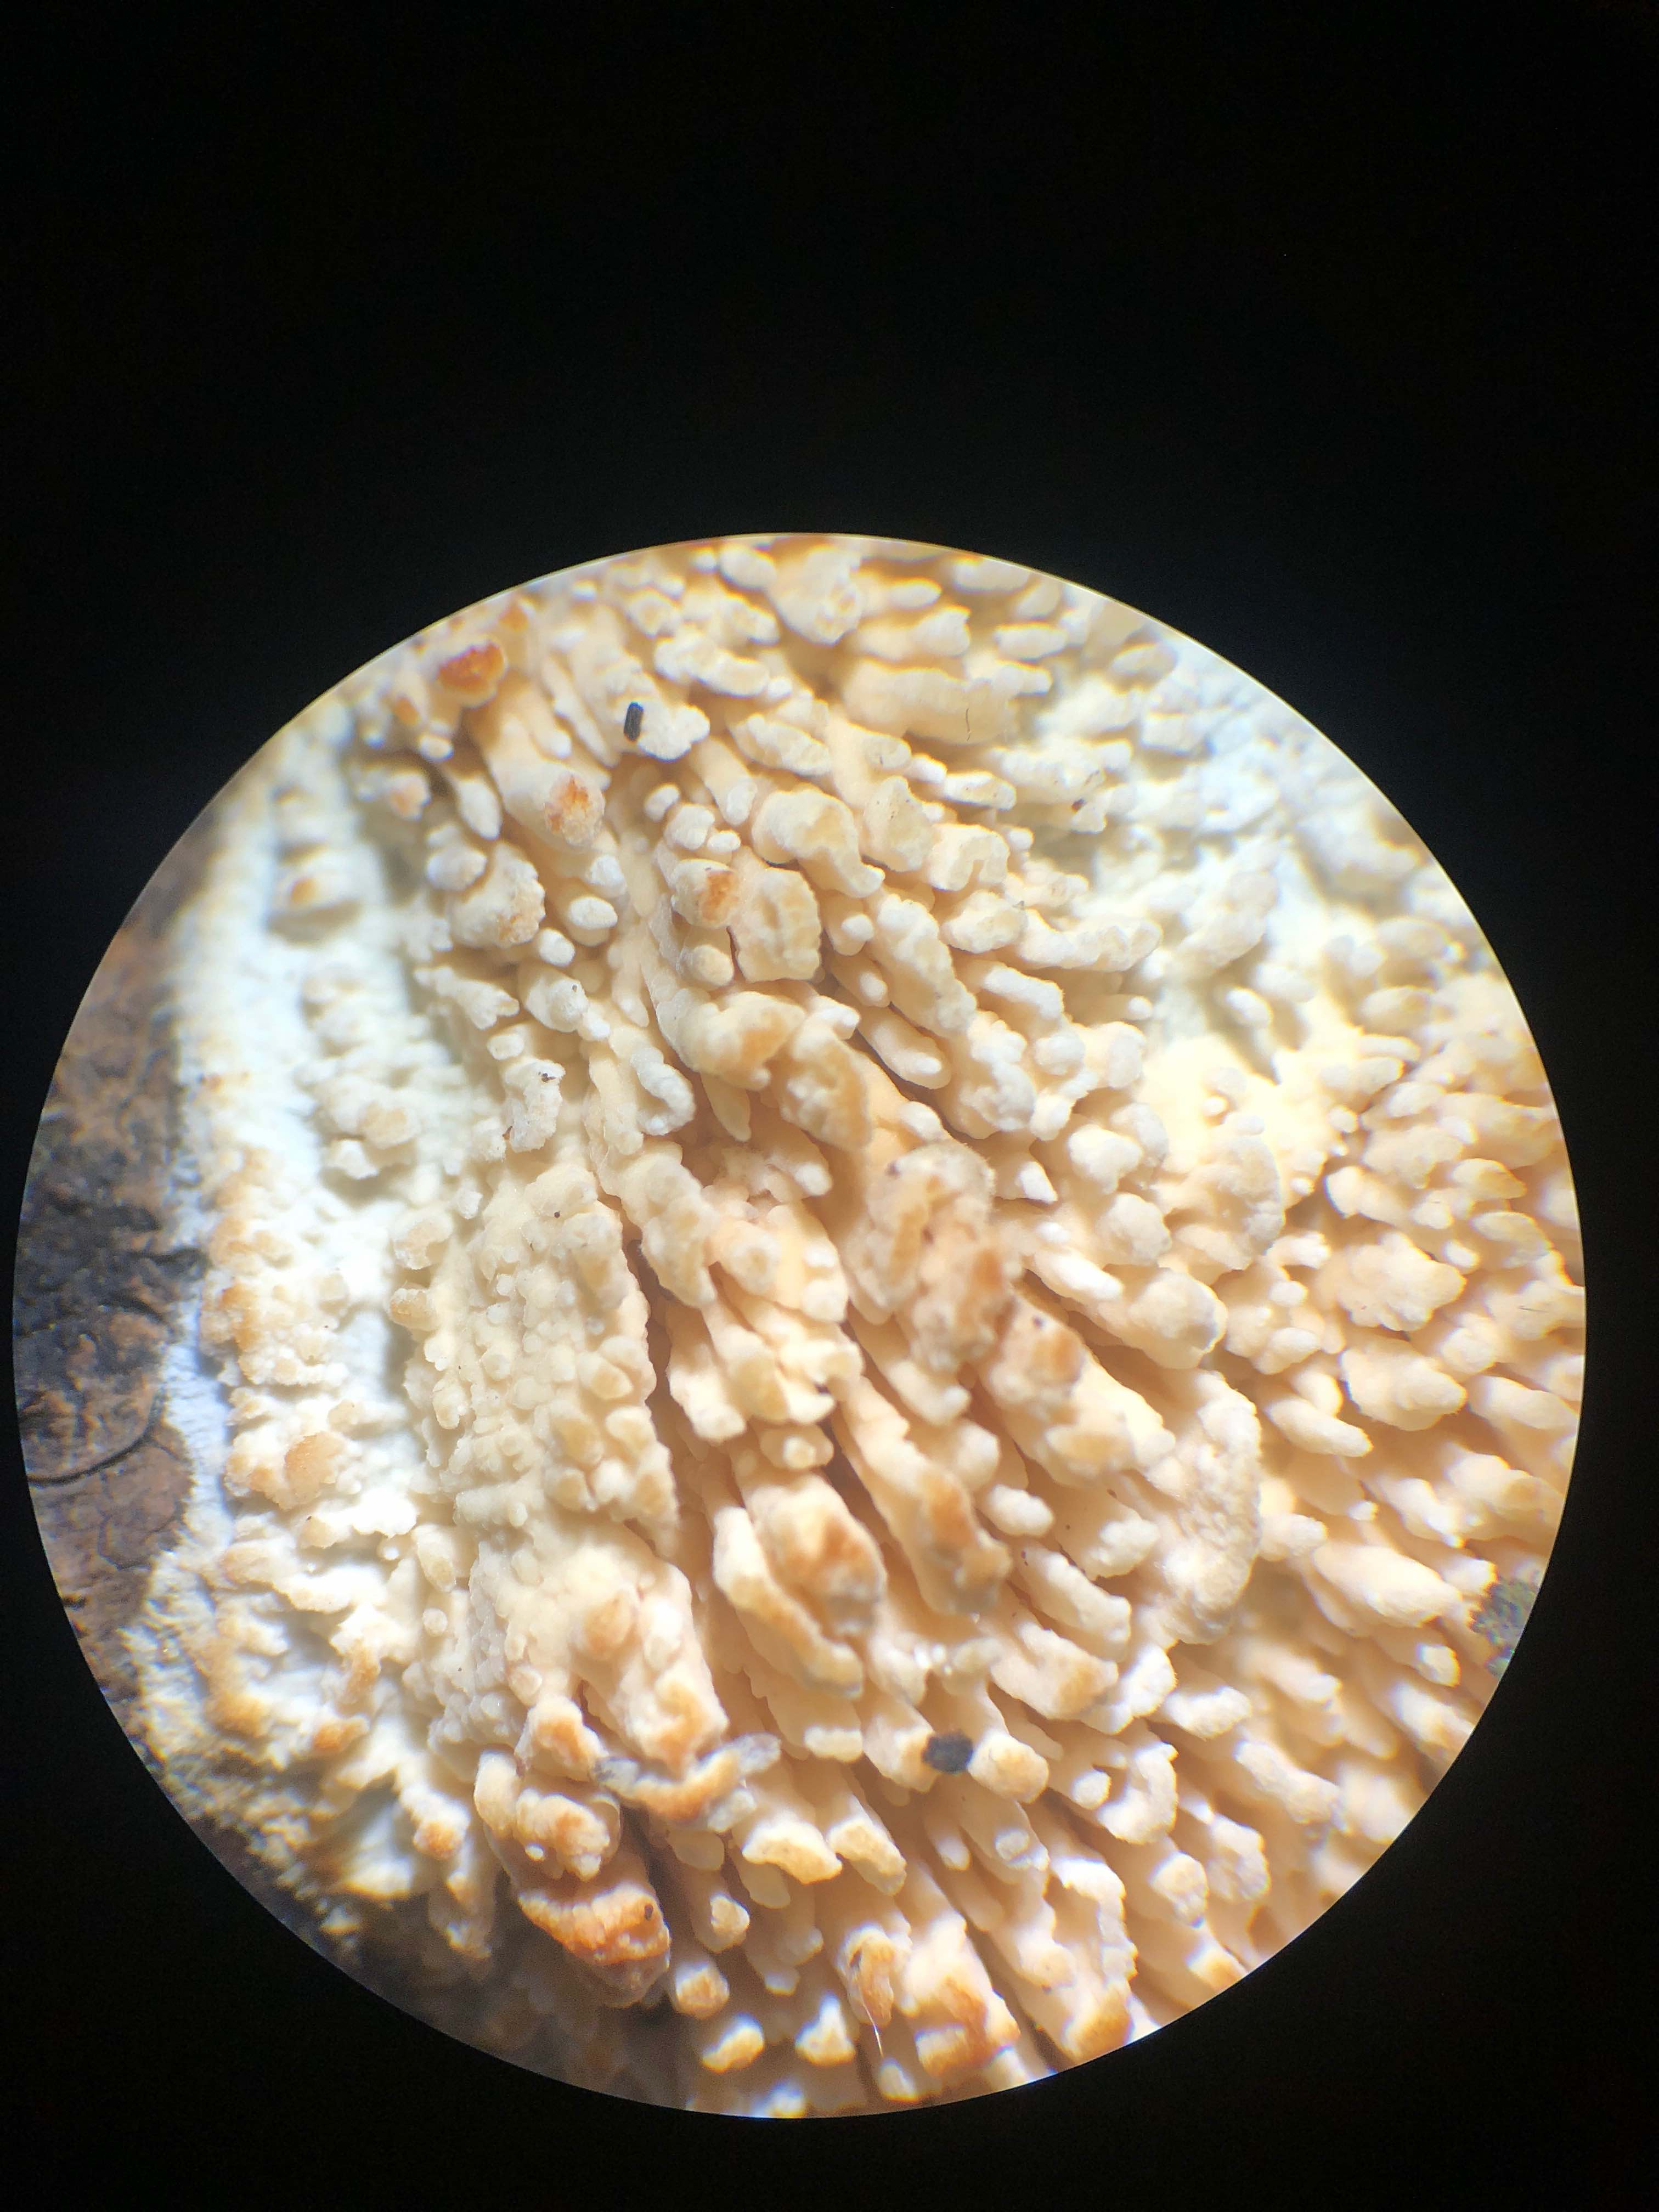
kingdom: Fungi
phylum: Basidiomycota
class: Agaricomycetes
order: Hymenochaetales
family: Schizoporaceae
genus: Xylodon
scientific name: Xylodon radula
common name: grovtandet kalkskind
